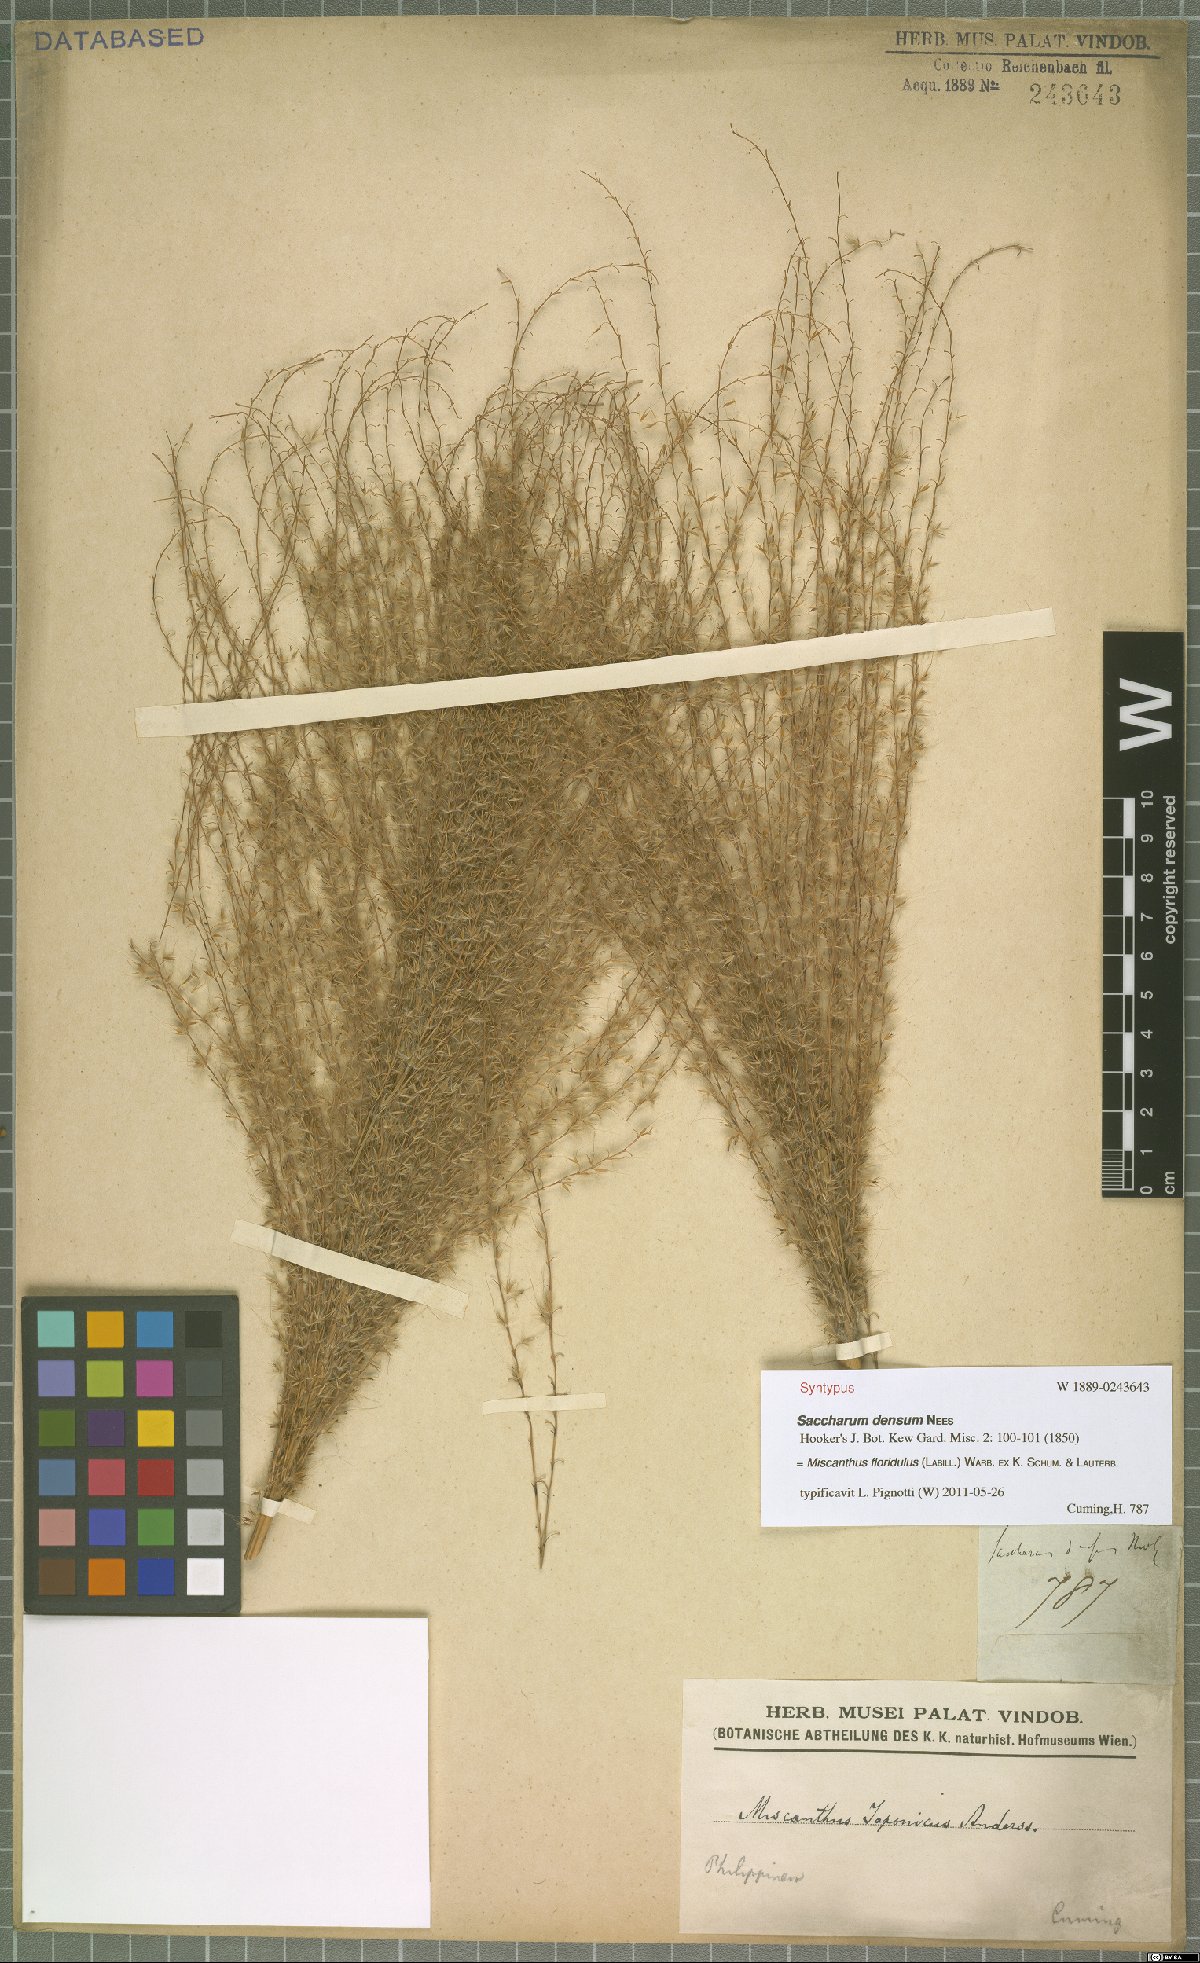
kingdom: Plantae
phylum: Tracheophyta
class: Liliopsida
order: Poales
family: Poaceae
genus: Miscanthus
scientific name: Miscanthus floridulus
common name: Pacific island silvergrass
